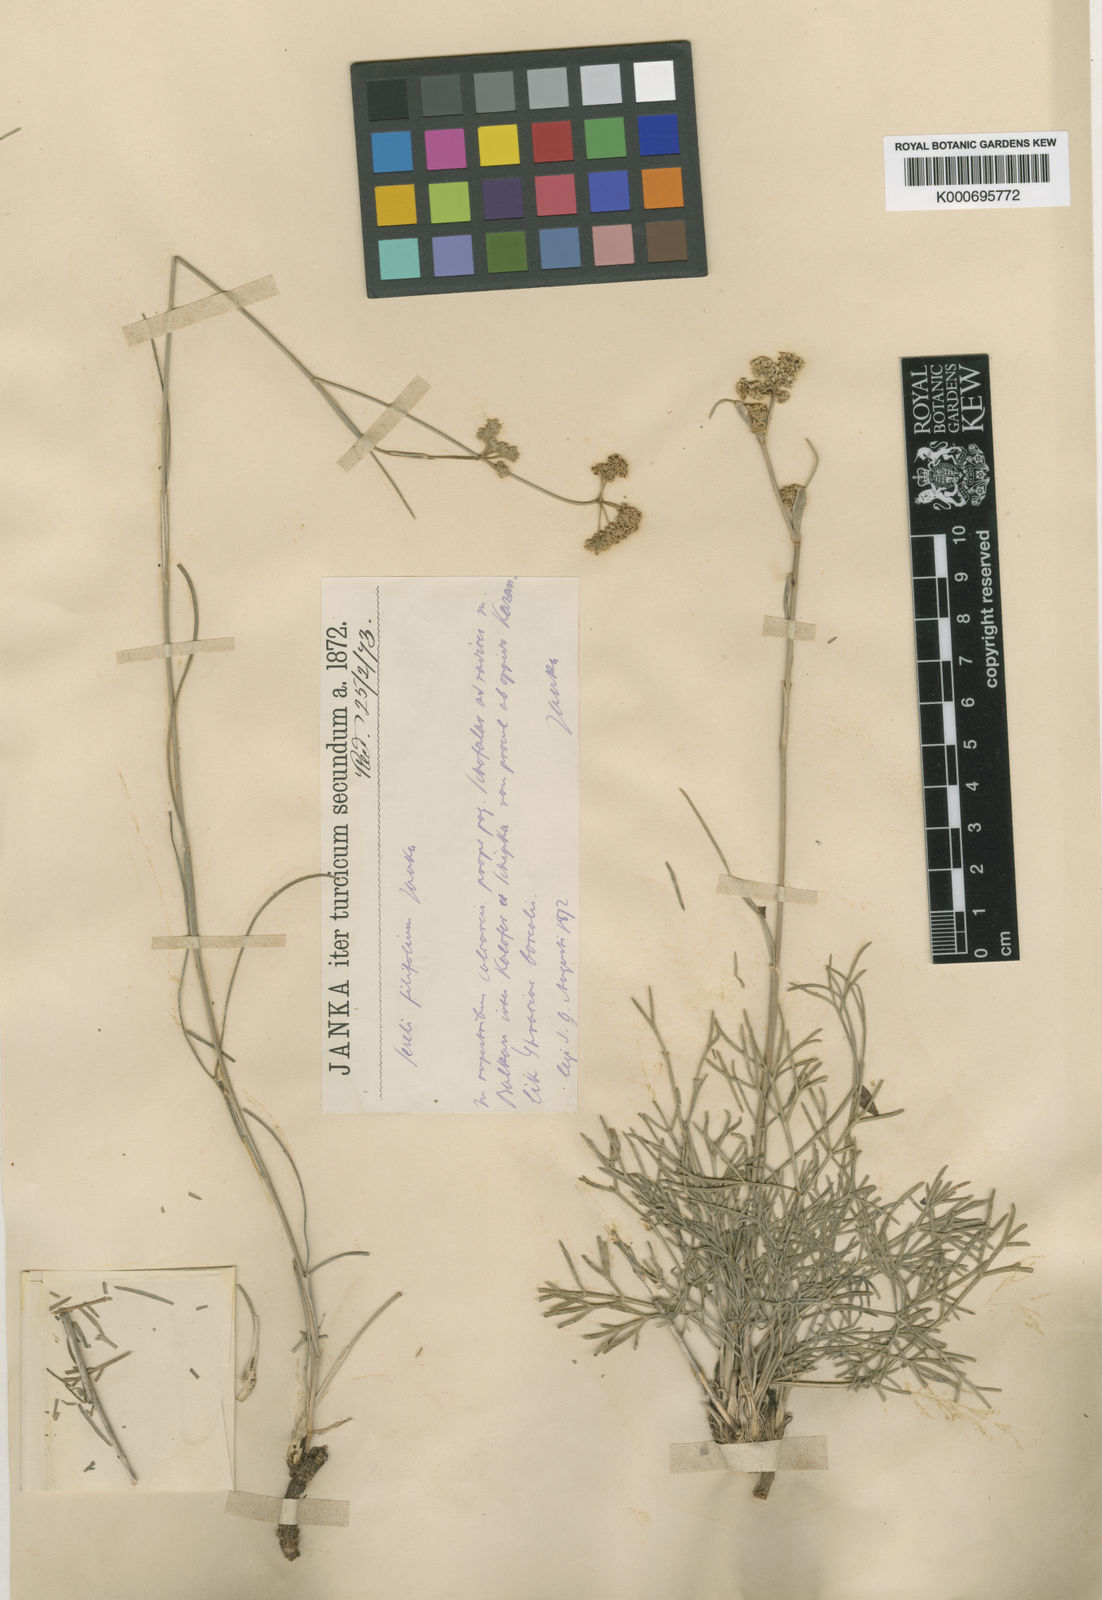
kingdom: Plantae
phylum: Tracheophyta
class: Magnoliopsida
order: Apiales
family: Apiaceae
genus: Seseli
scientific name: Seseli bulgaricum
